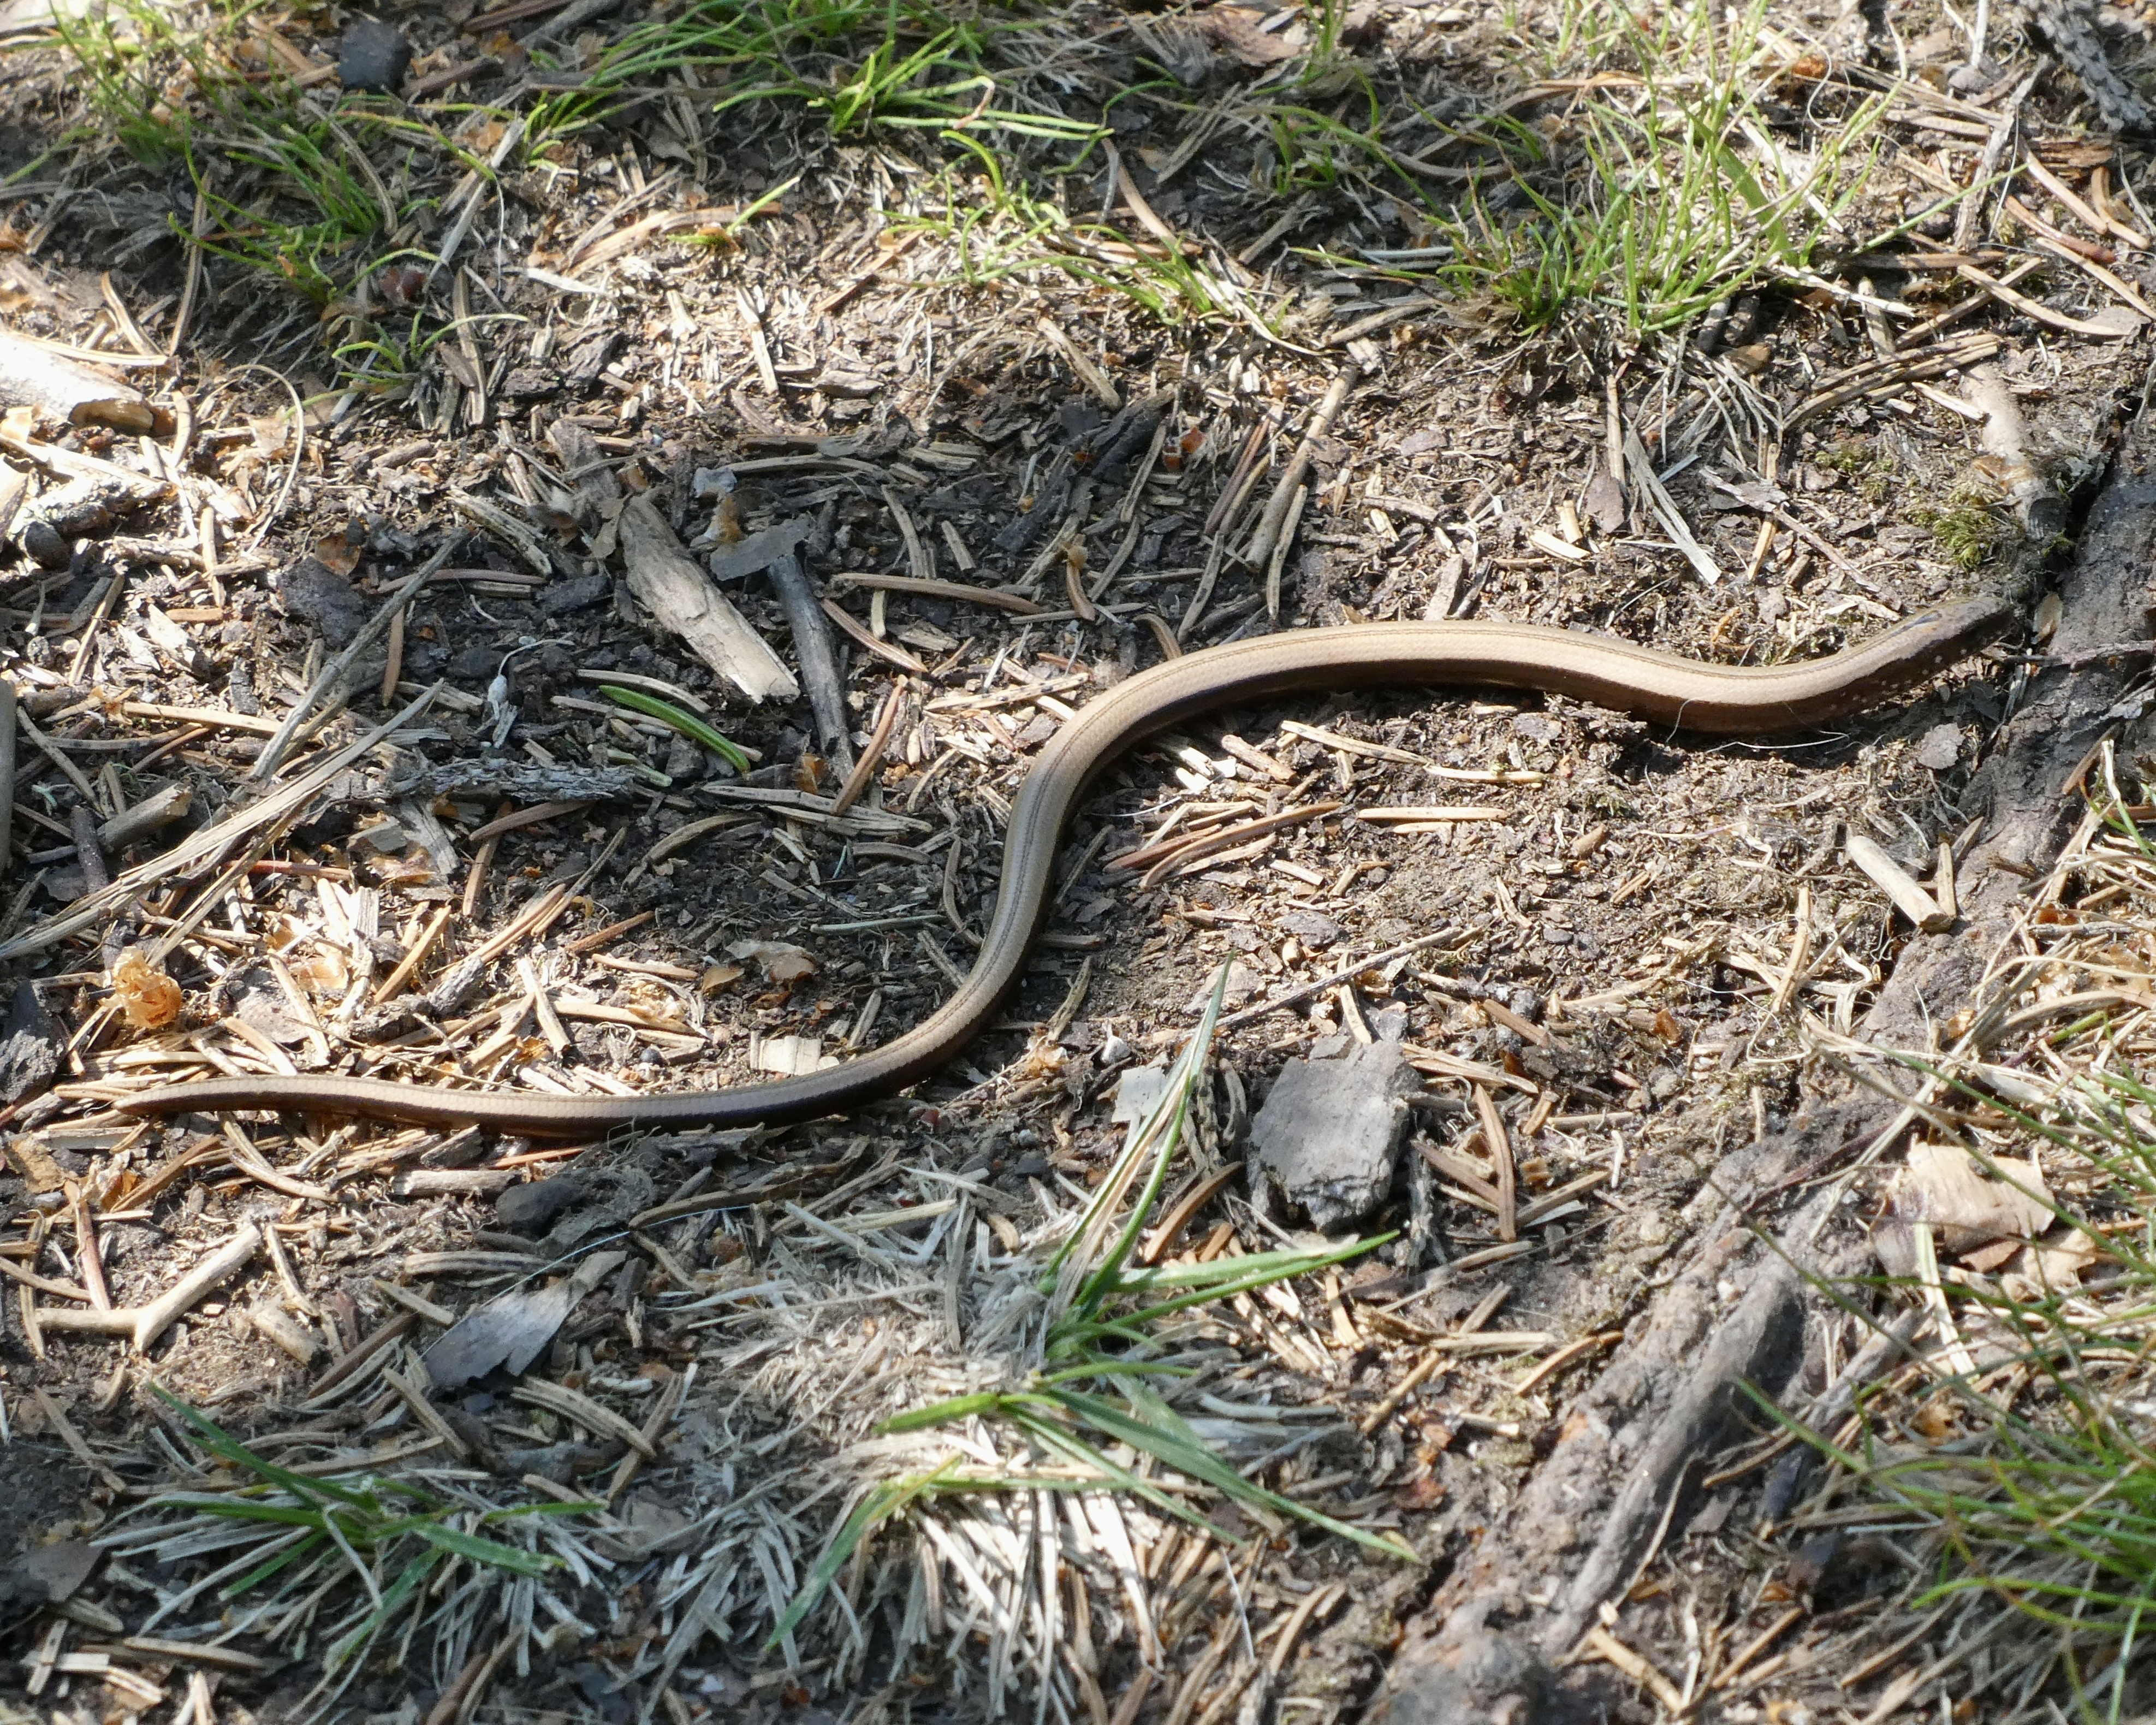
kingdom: Animalia
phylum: Chordata
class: Squamata
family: Anguidae
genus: Anguis
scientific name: Anguis colchica
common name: Slow worm
